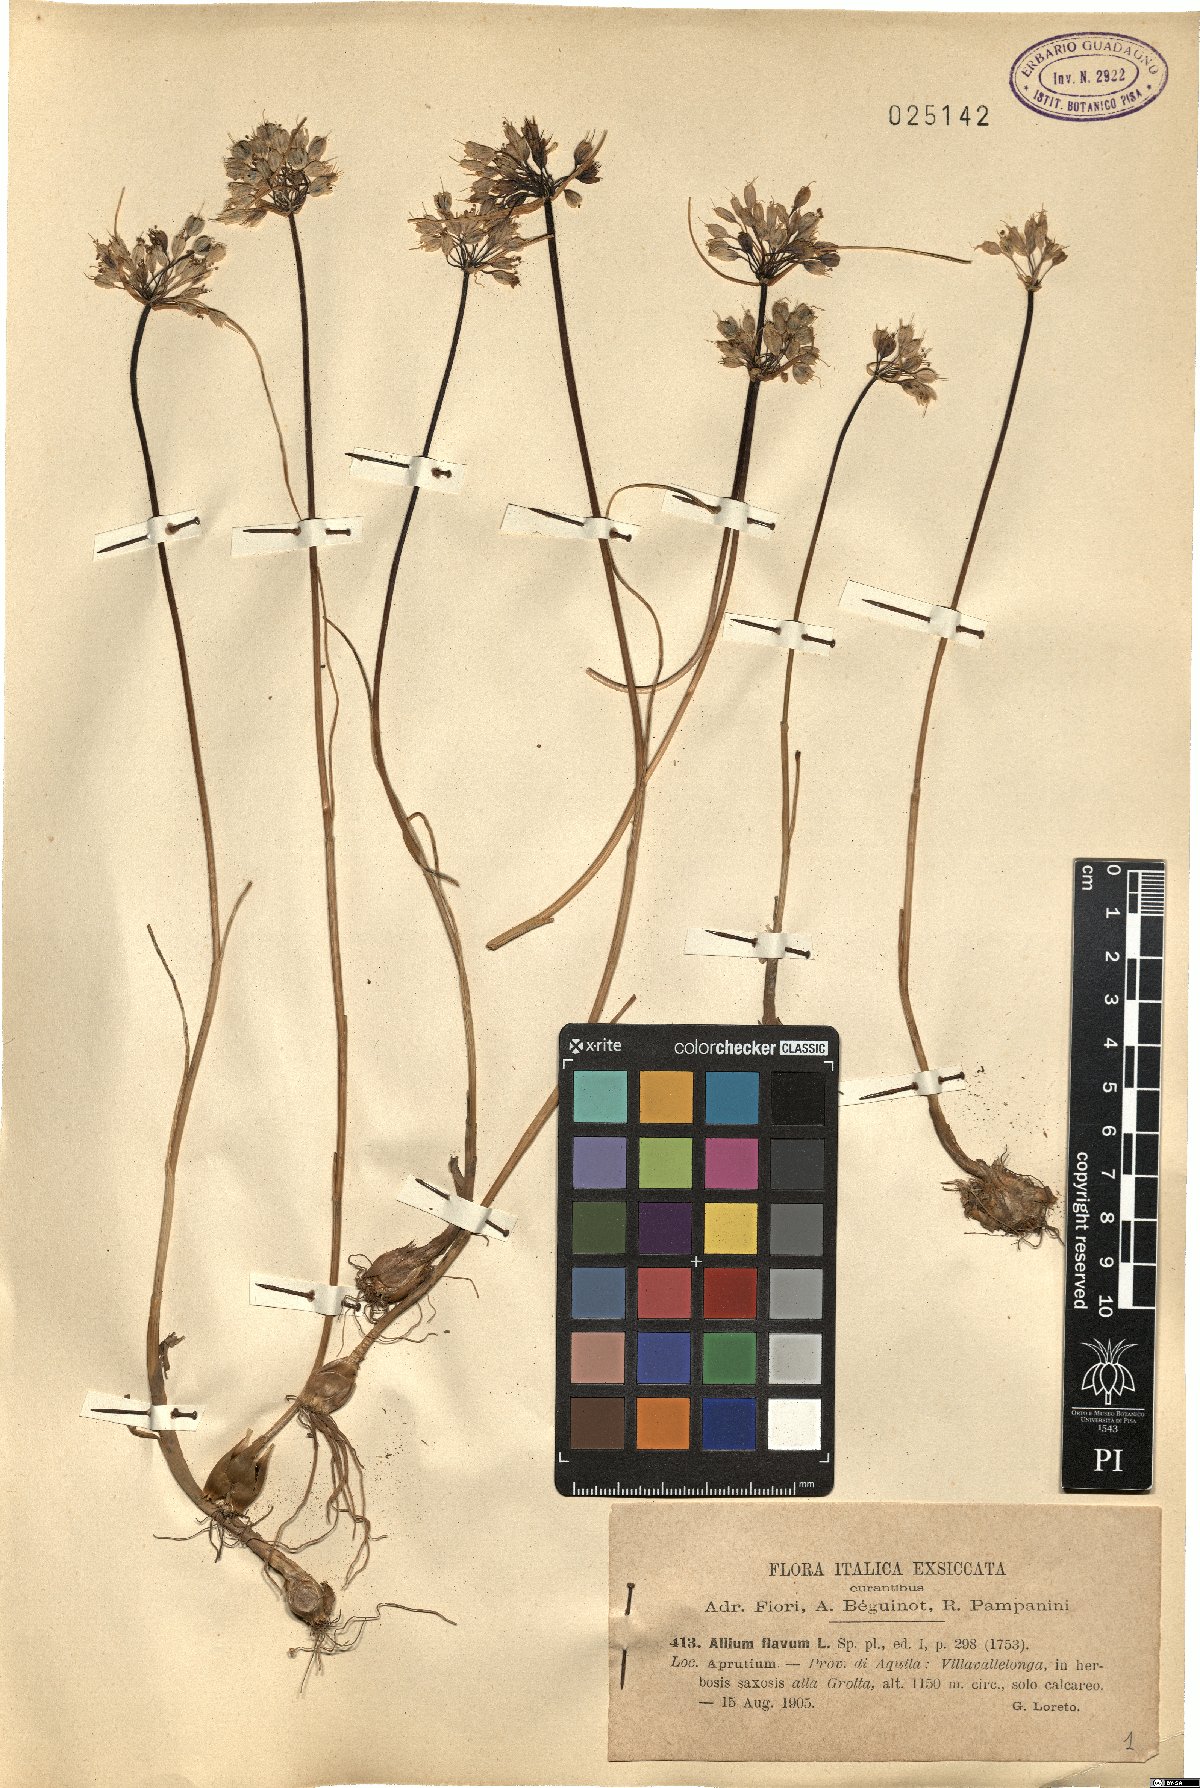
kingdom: Plantae
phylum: Tracheophyta
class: Liliopsida
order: Asparagales
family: Amaryllidaceae
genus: Allium
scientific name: Allium flavum
